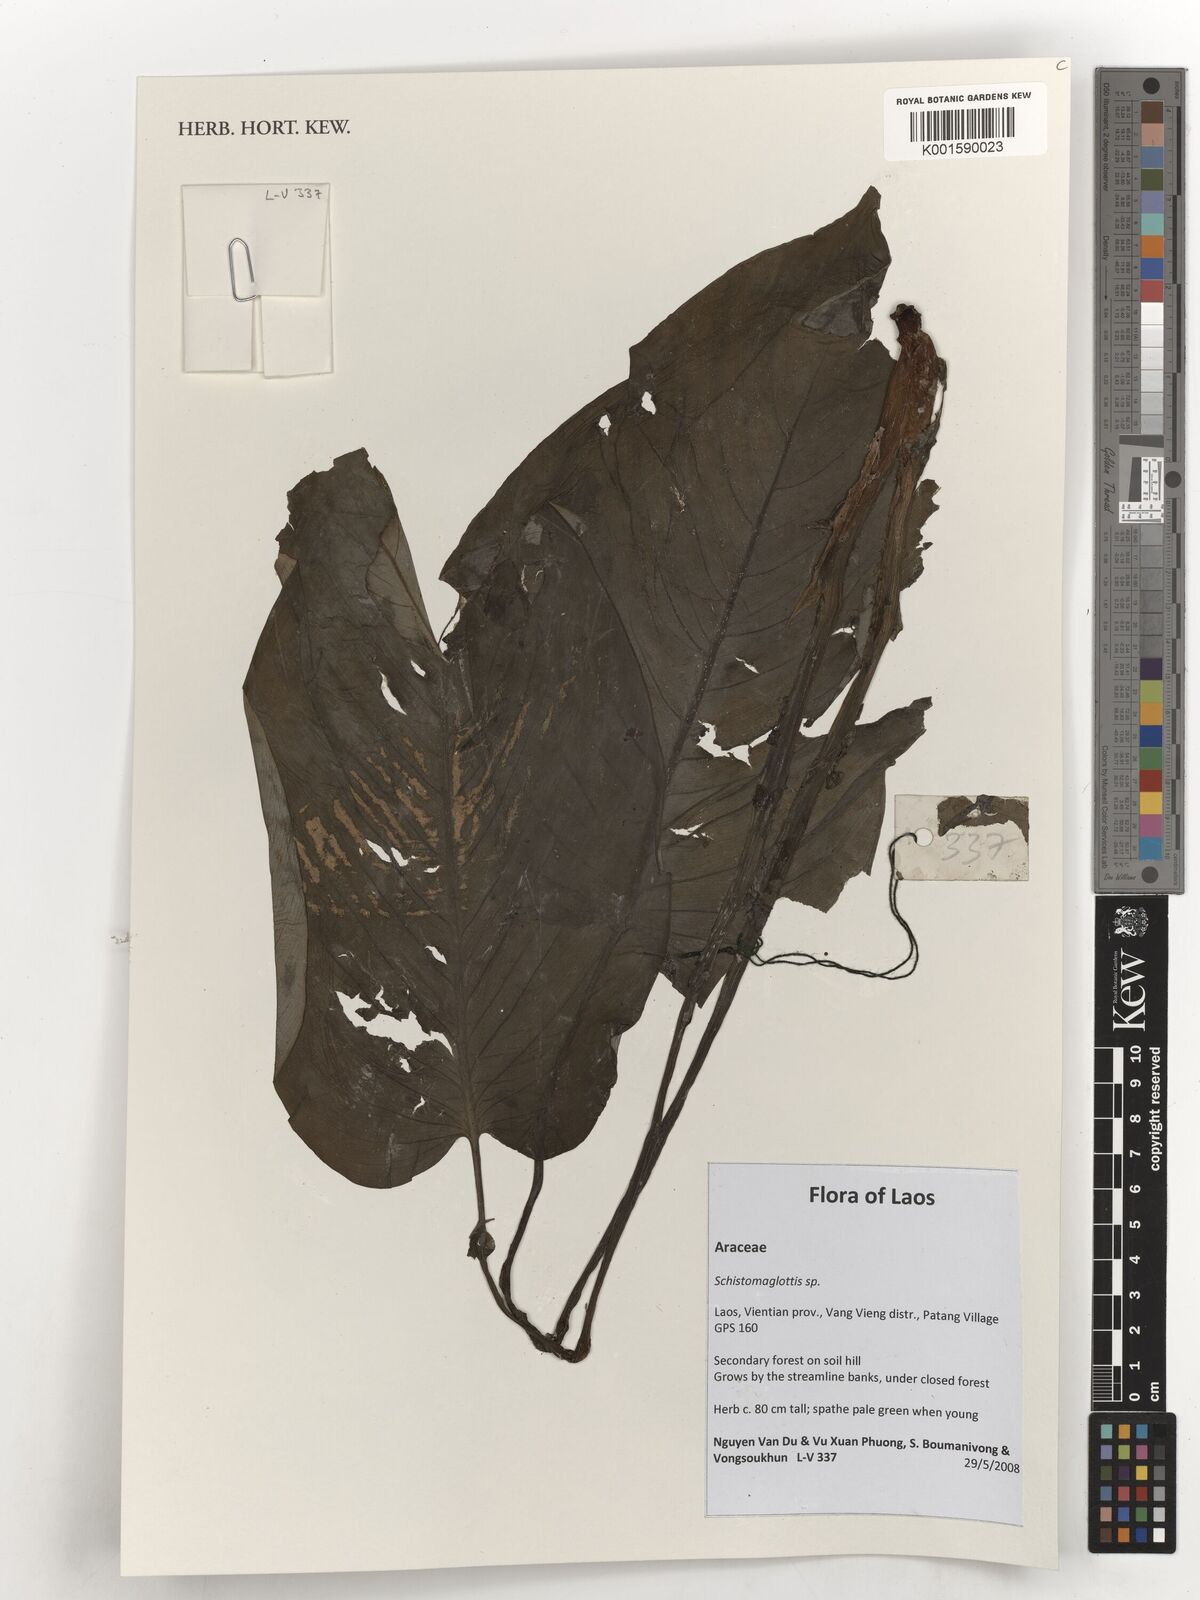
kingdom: Plantae
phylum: Tracheophyta
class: Liliopsida
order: Alismatales
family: Araceae
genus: Schismatoglottis
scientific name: Schismatoglottis
